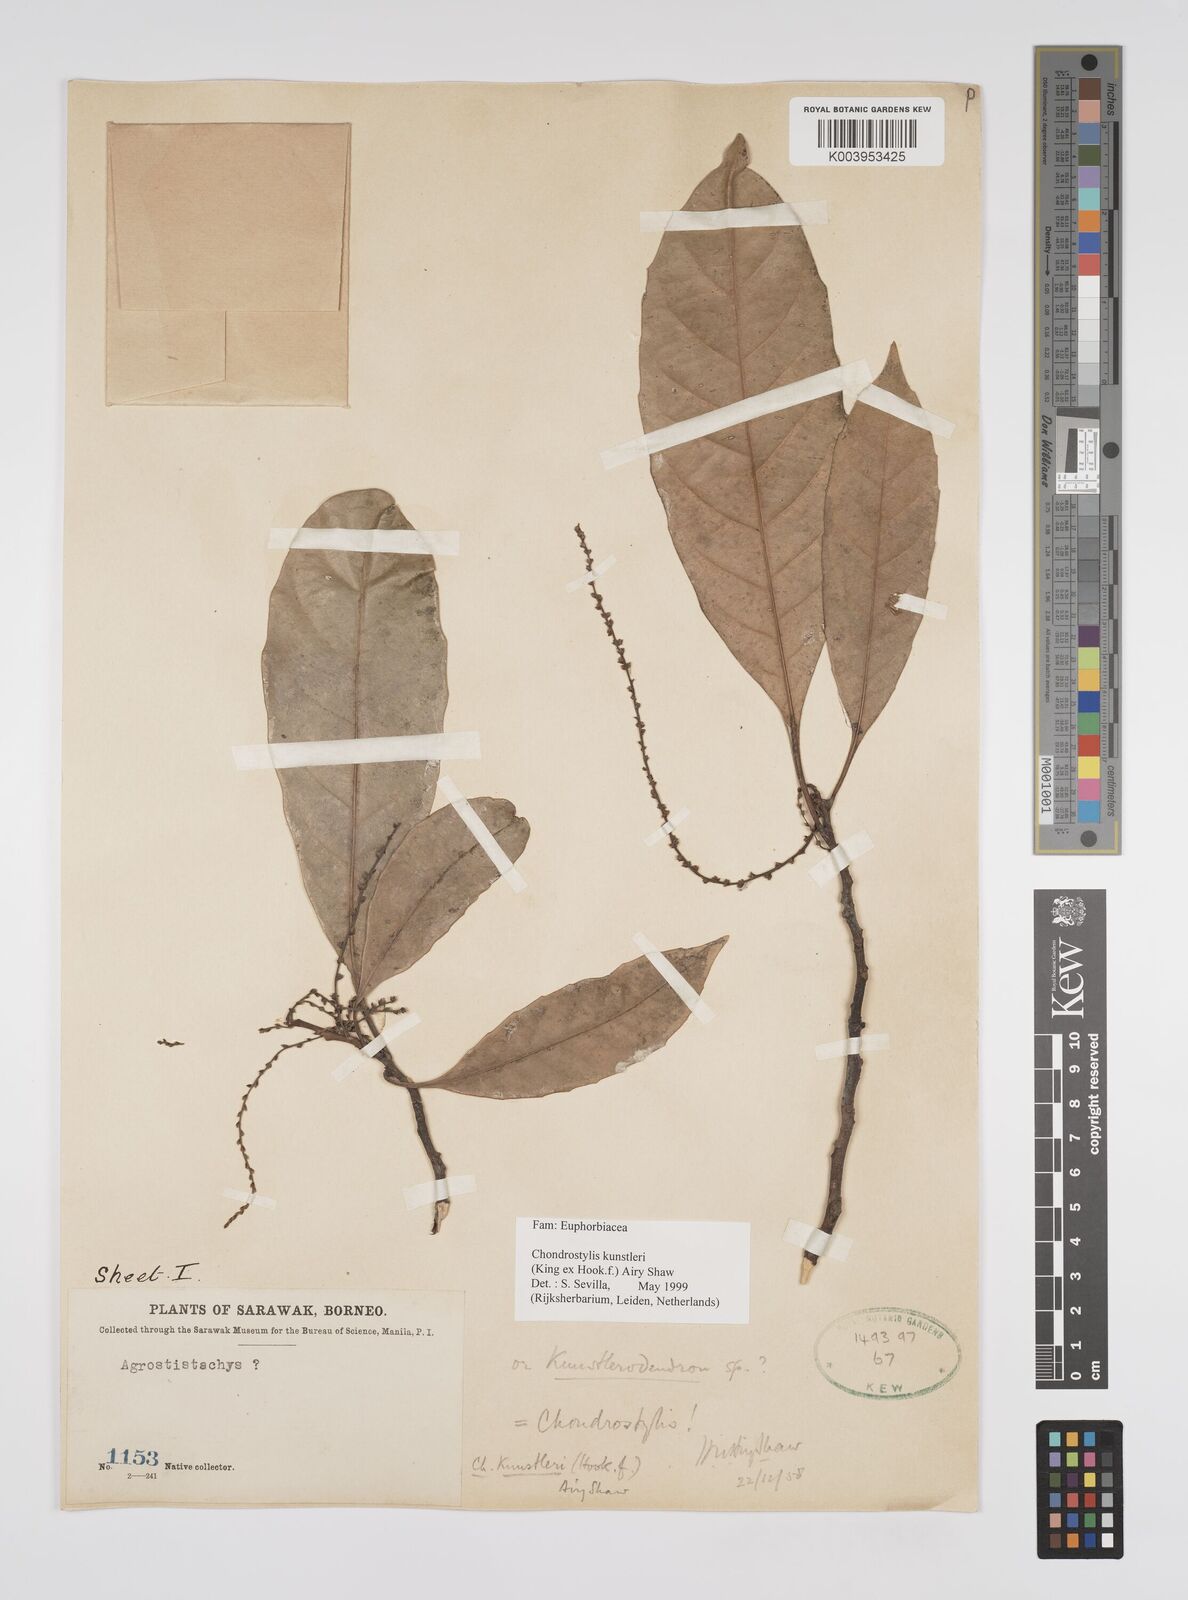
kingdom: Plantae
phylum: Tracheophyta
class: Magnoliopsida
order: Malpighiales
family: Euphorbiaceae
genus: Chondrostylis
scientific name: Chondrostylis kunstleri
